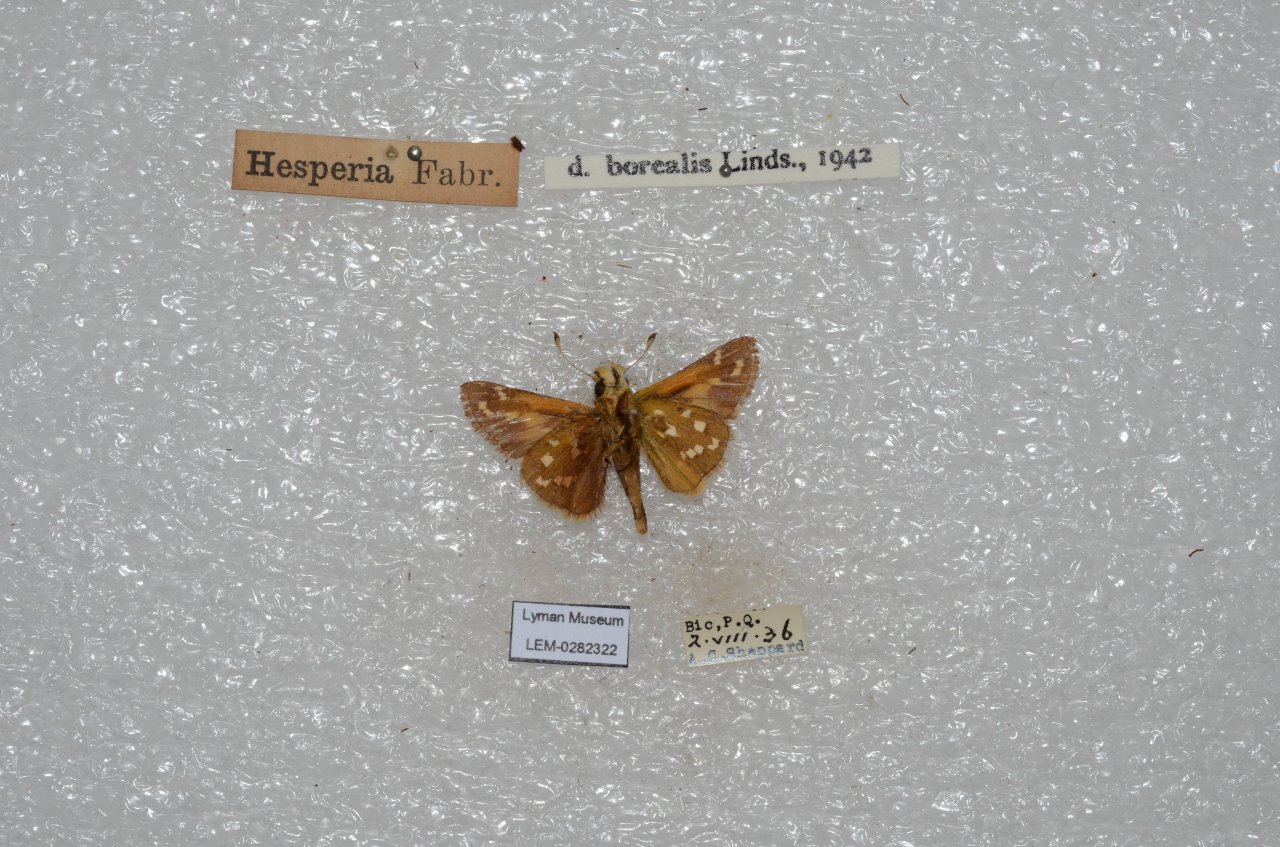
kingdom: Animalia
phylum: Arthropoda
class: Insecta
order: Lepidoptera
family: Hesperiidae
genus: Hesperia
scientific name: Hesperia comma
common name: Common Branded Skipper
